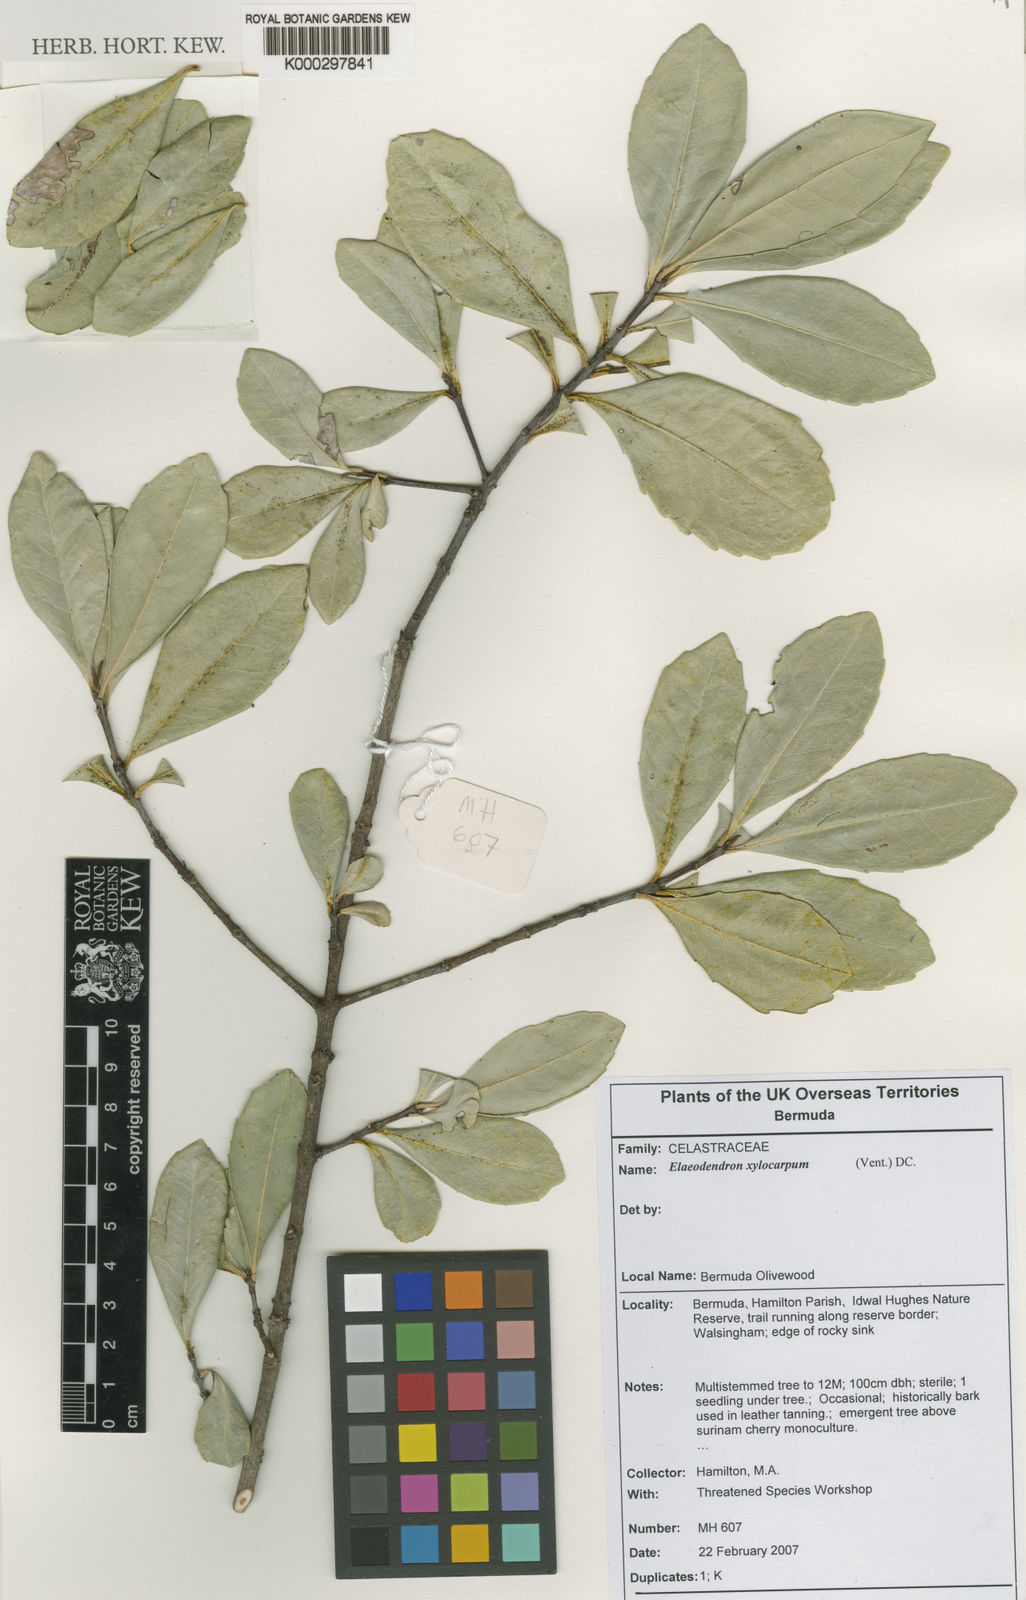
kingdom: Plantae
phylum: Tracheophyta
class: Magnoliopsida
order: Celastrales
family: Celastraceae
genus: Elaeodendron
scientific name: Elaeodendron laneanum
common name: Bermuda olivewood
